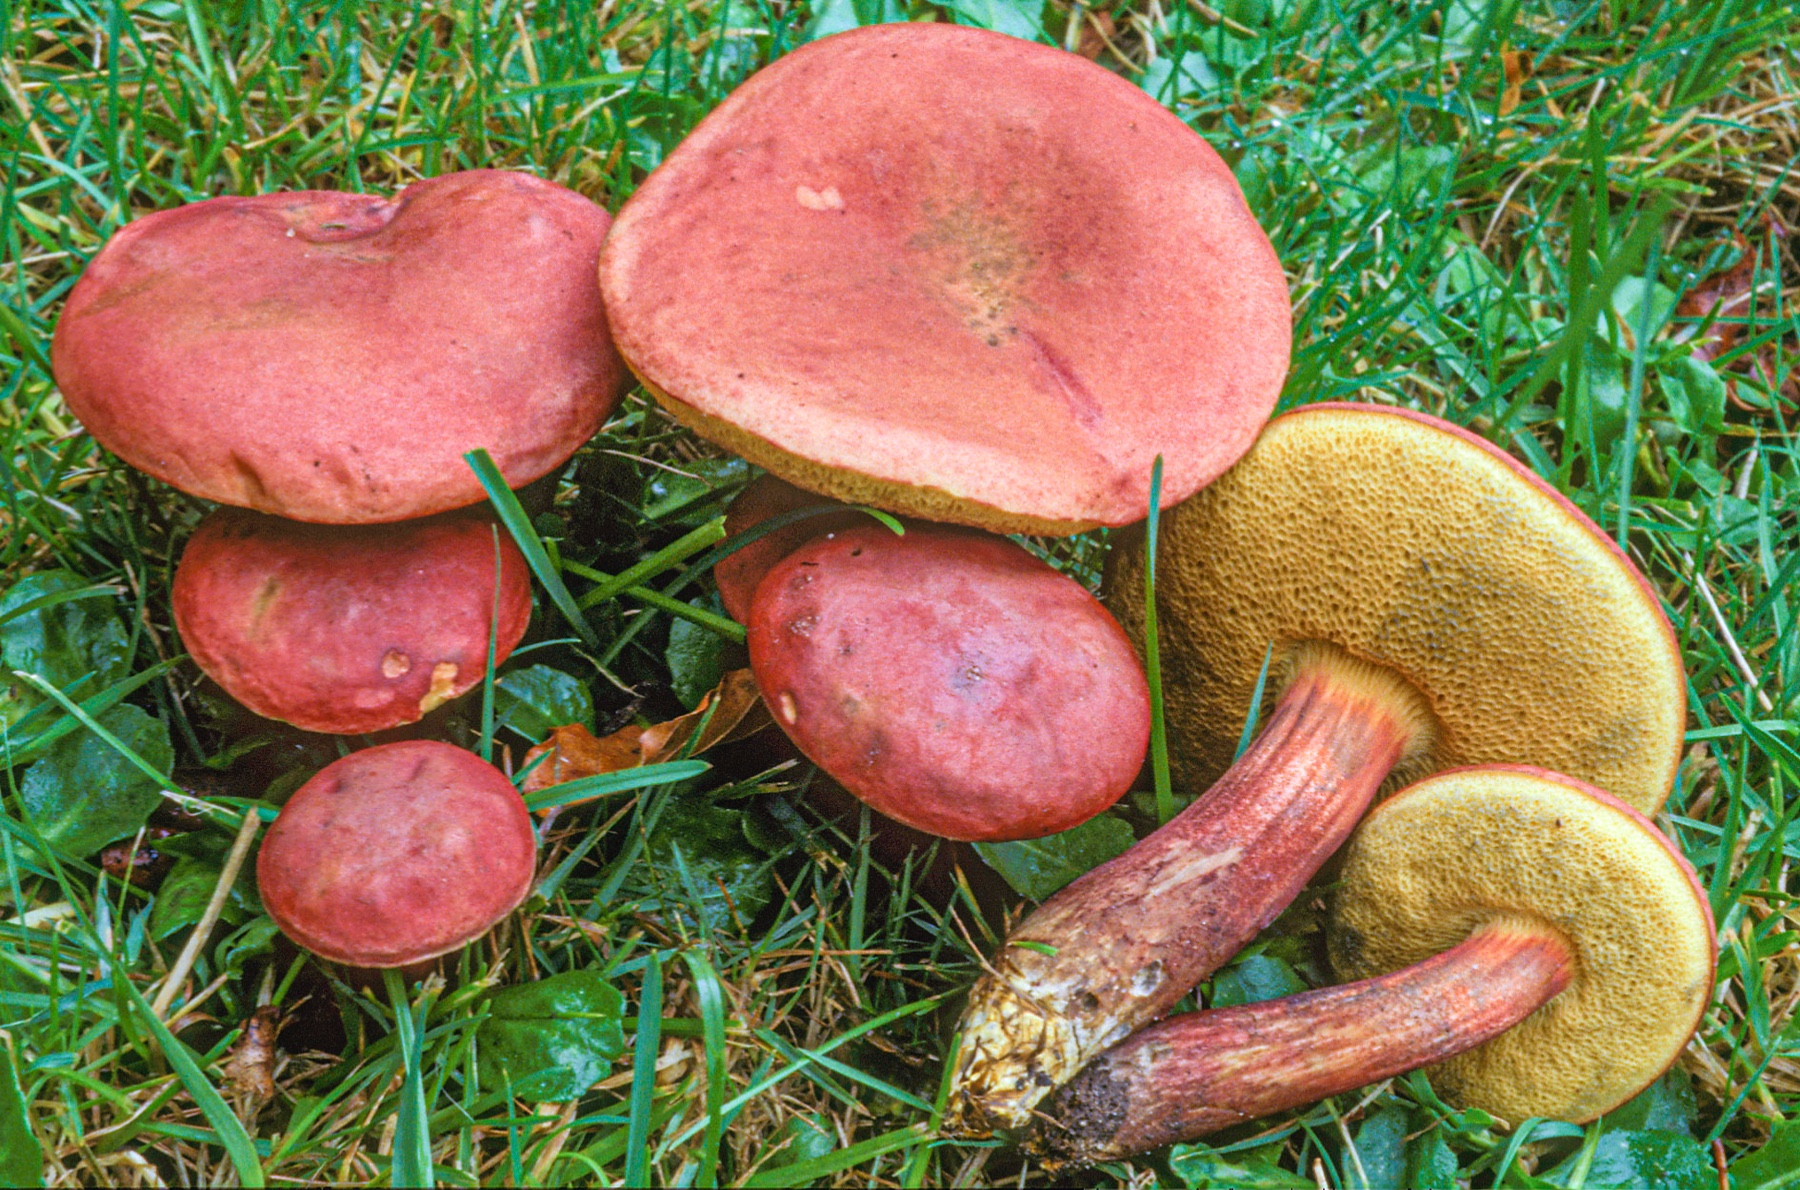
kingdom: Fungi
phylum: Basidiomycota
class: Agaricomycetes
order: Boletales
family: Boletaceae
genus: Hortiboletus
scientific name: Hortiboletus rubellus
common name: blodrød rørhat
